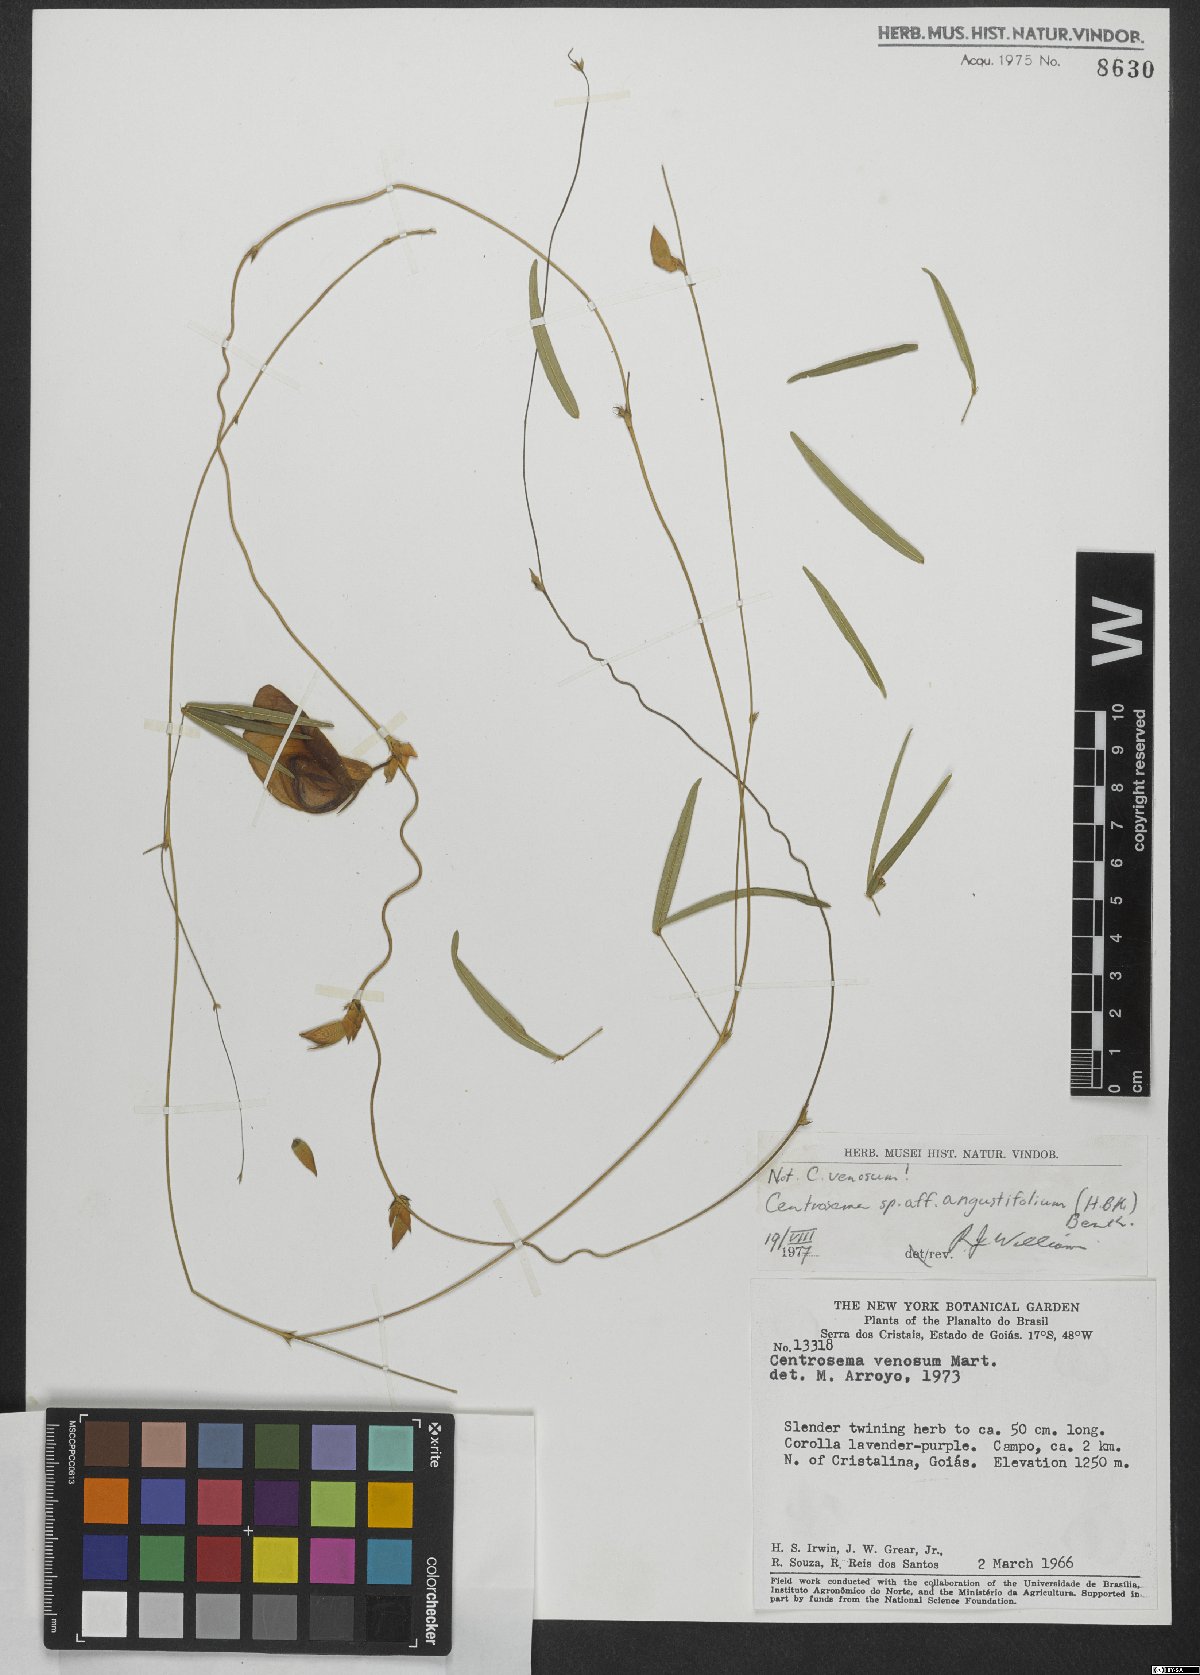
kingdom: Plantae
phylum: Tracheophyta
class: Magnoliopsida
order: Fabales
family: Fabaceae
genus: Centrosema
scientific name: Centrosema angustifolium
